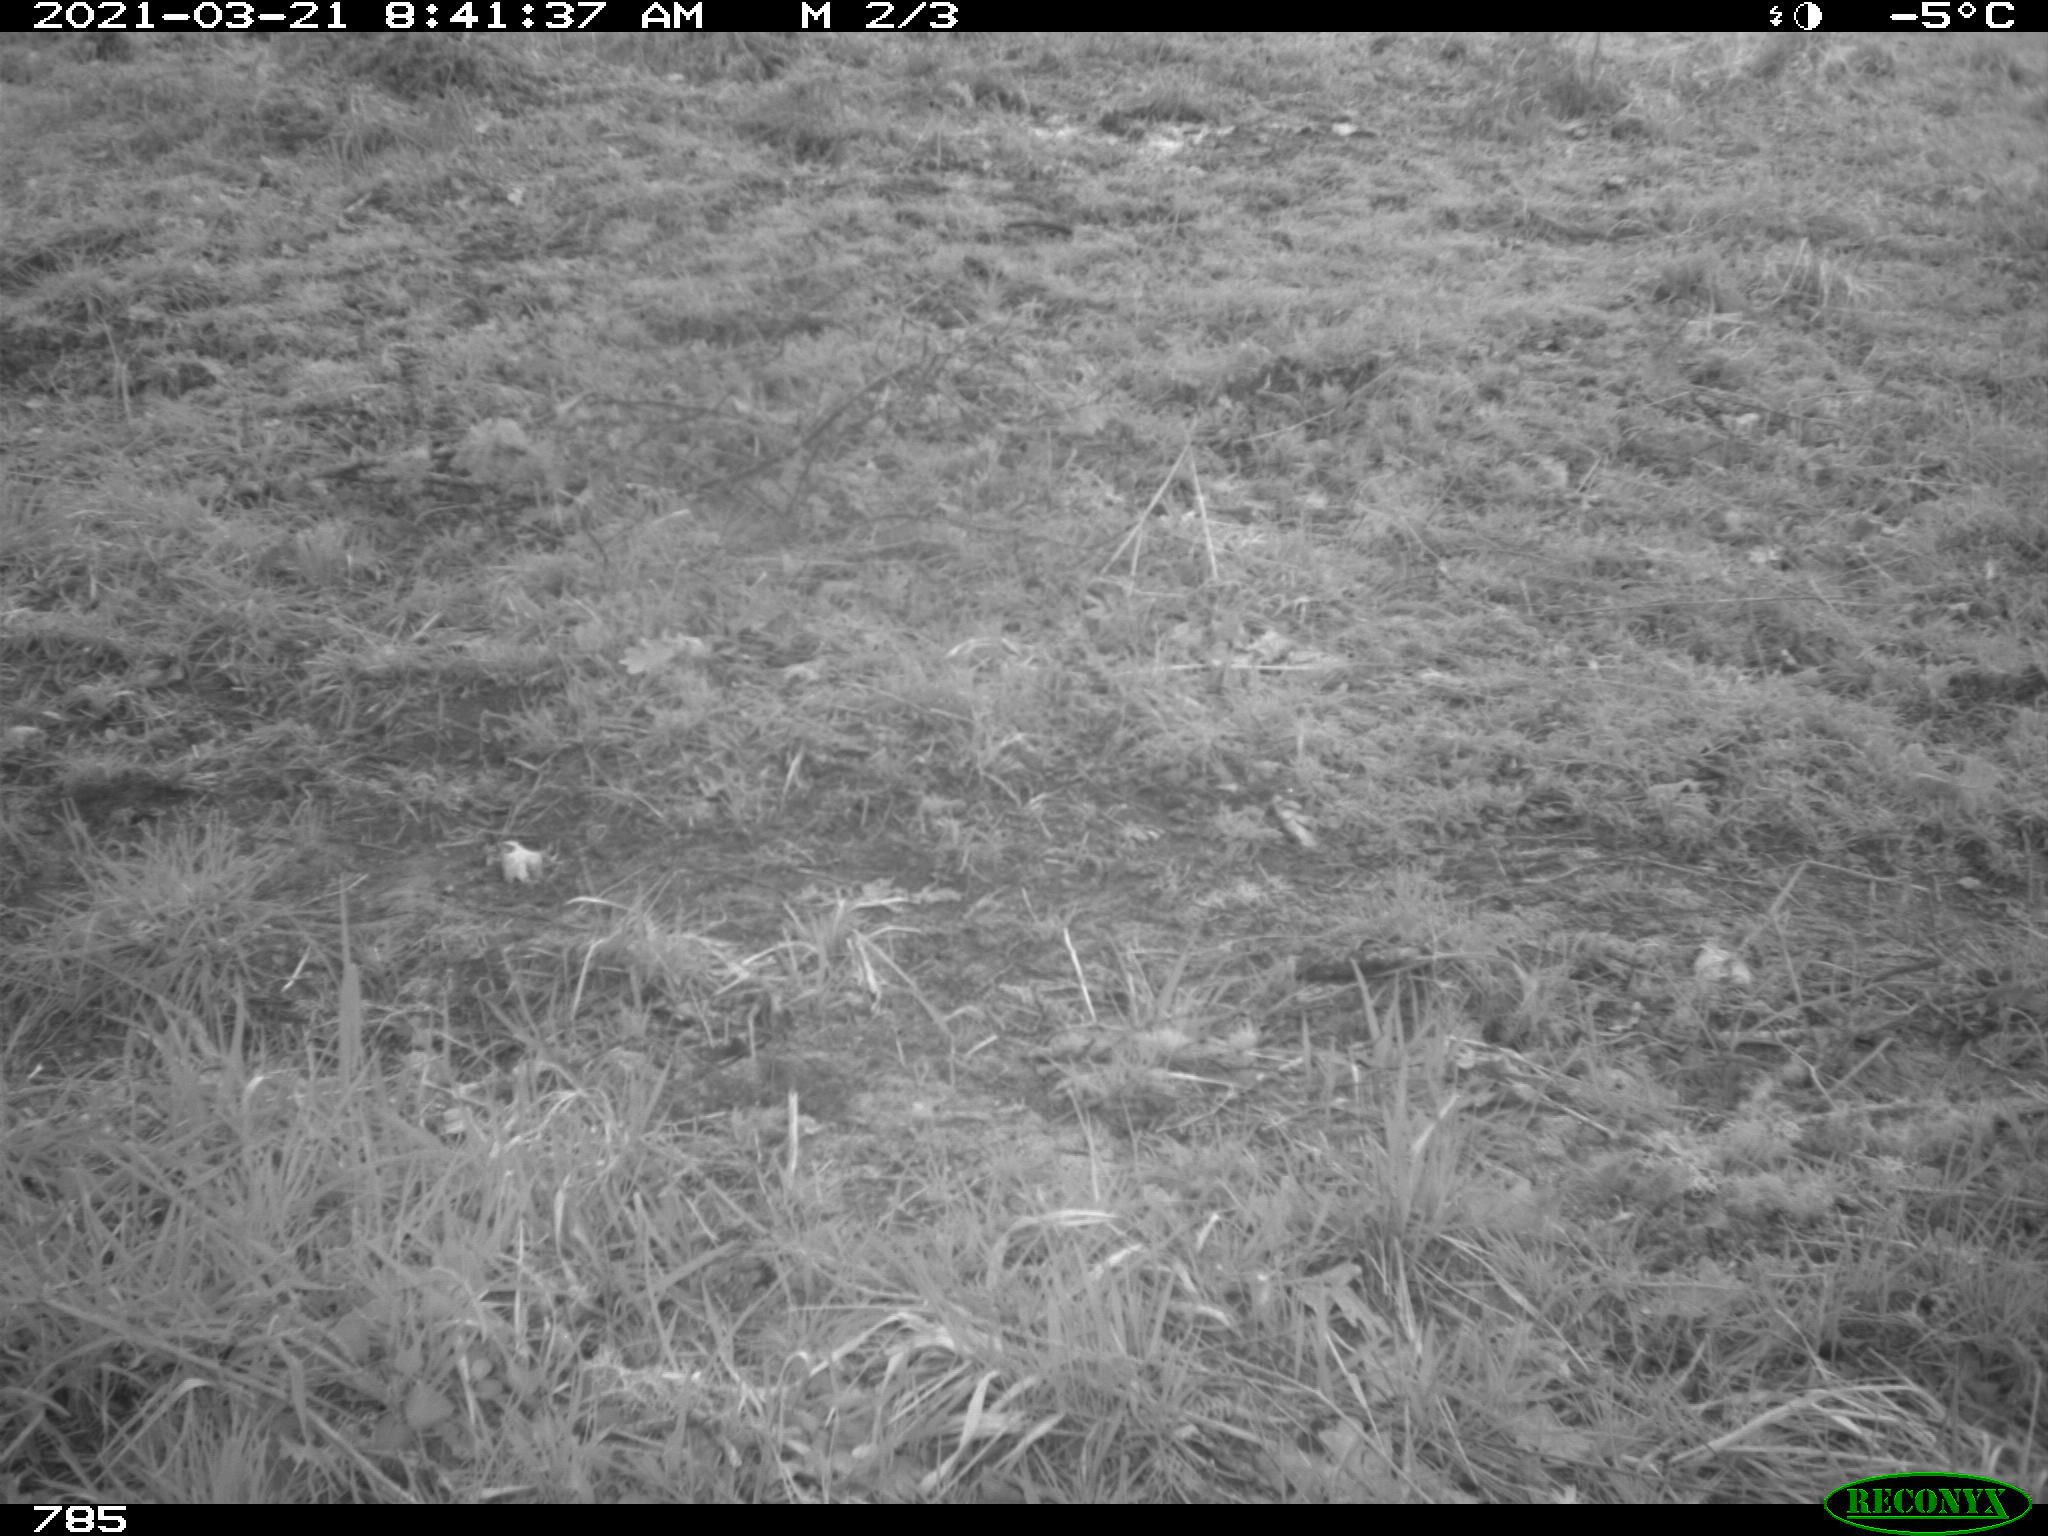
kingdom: Animalia
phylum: Chordata
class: Mammalia
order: Perissodactyla
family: Equidae
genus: Equus
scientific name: Equus caballus
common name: Horse
